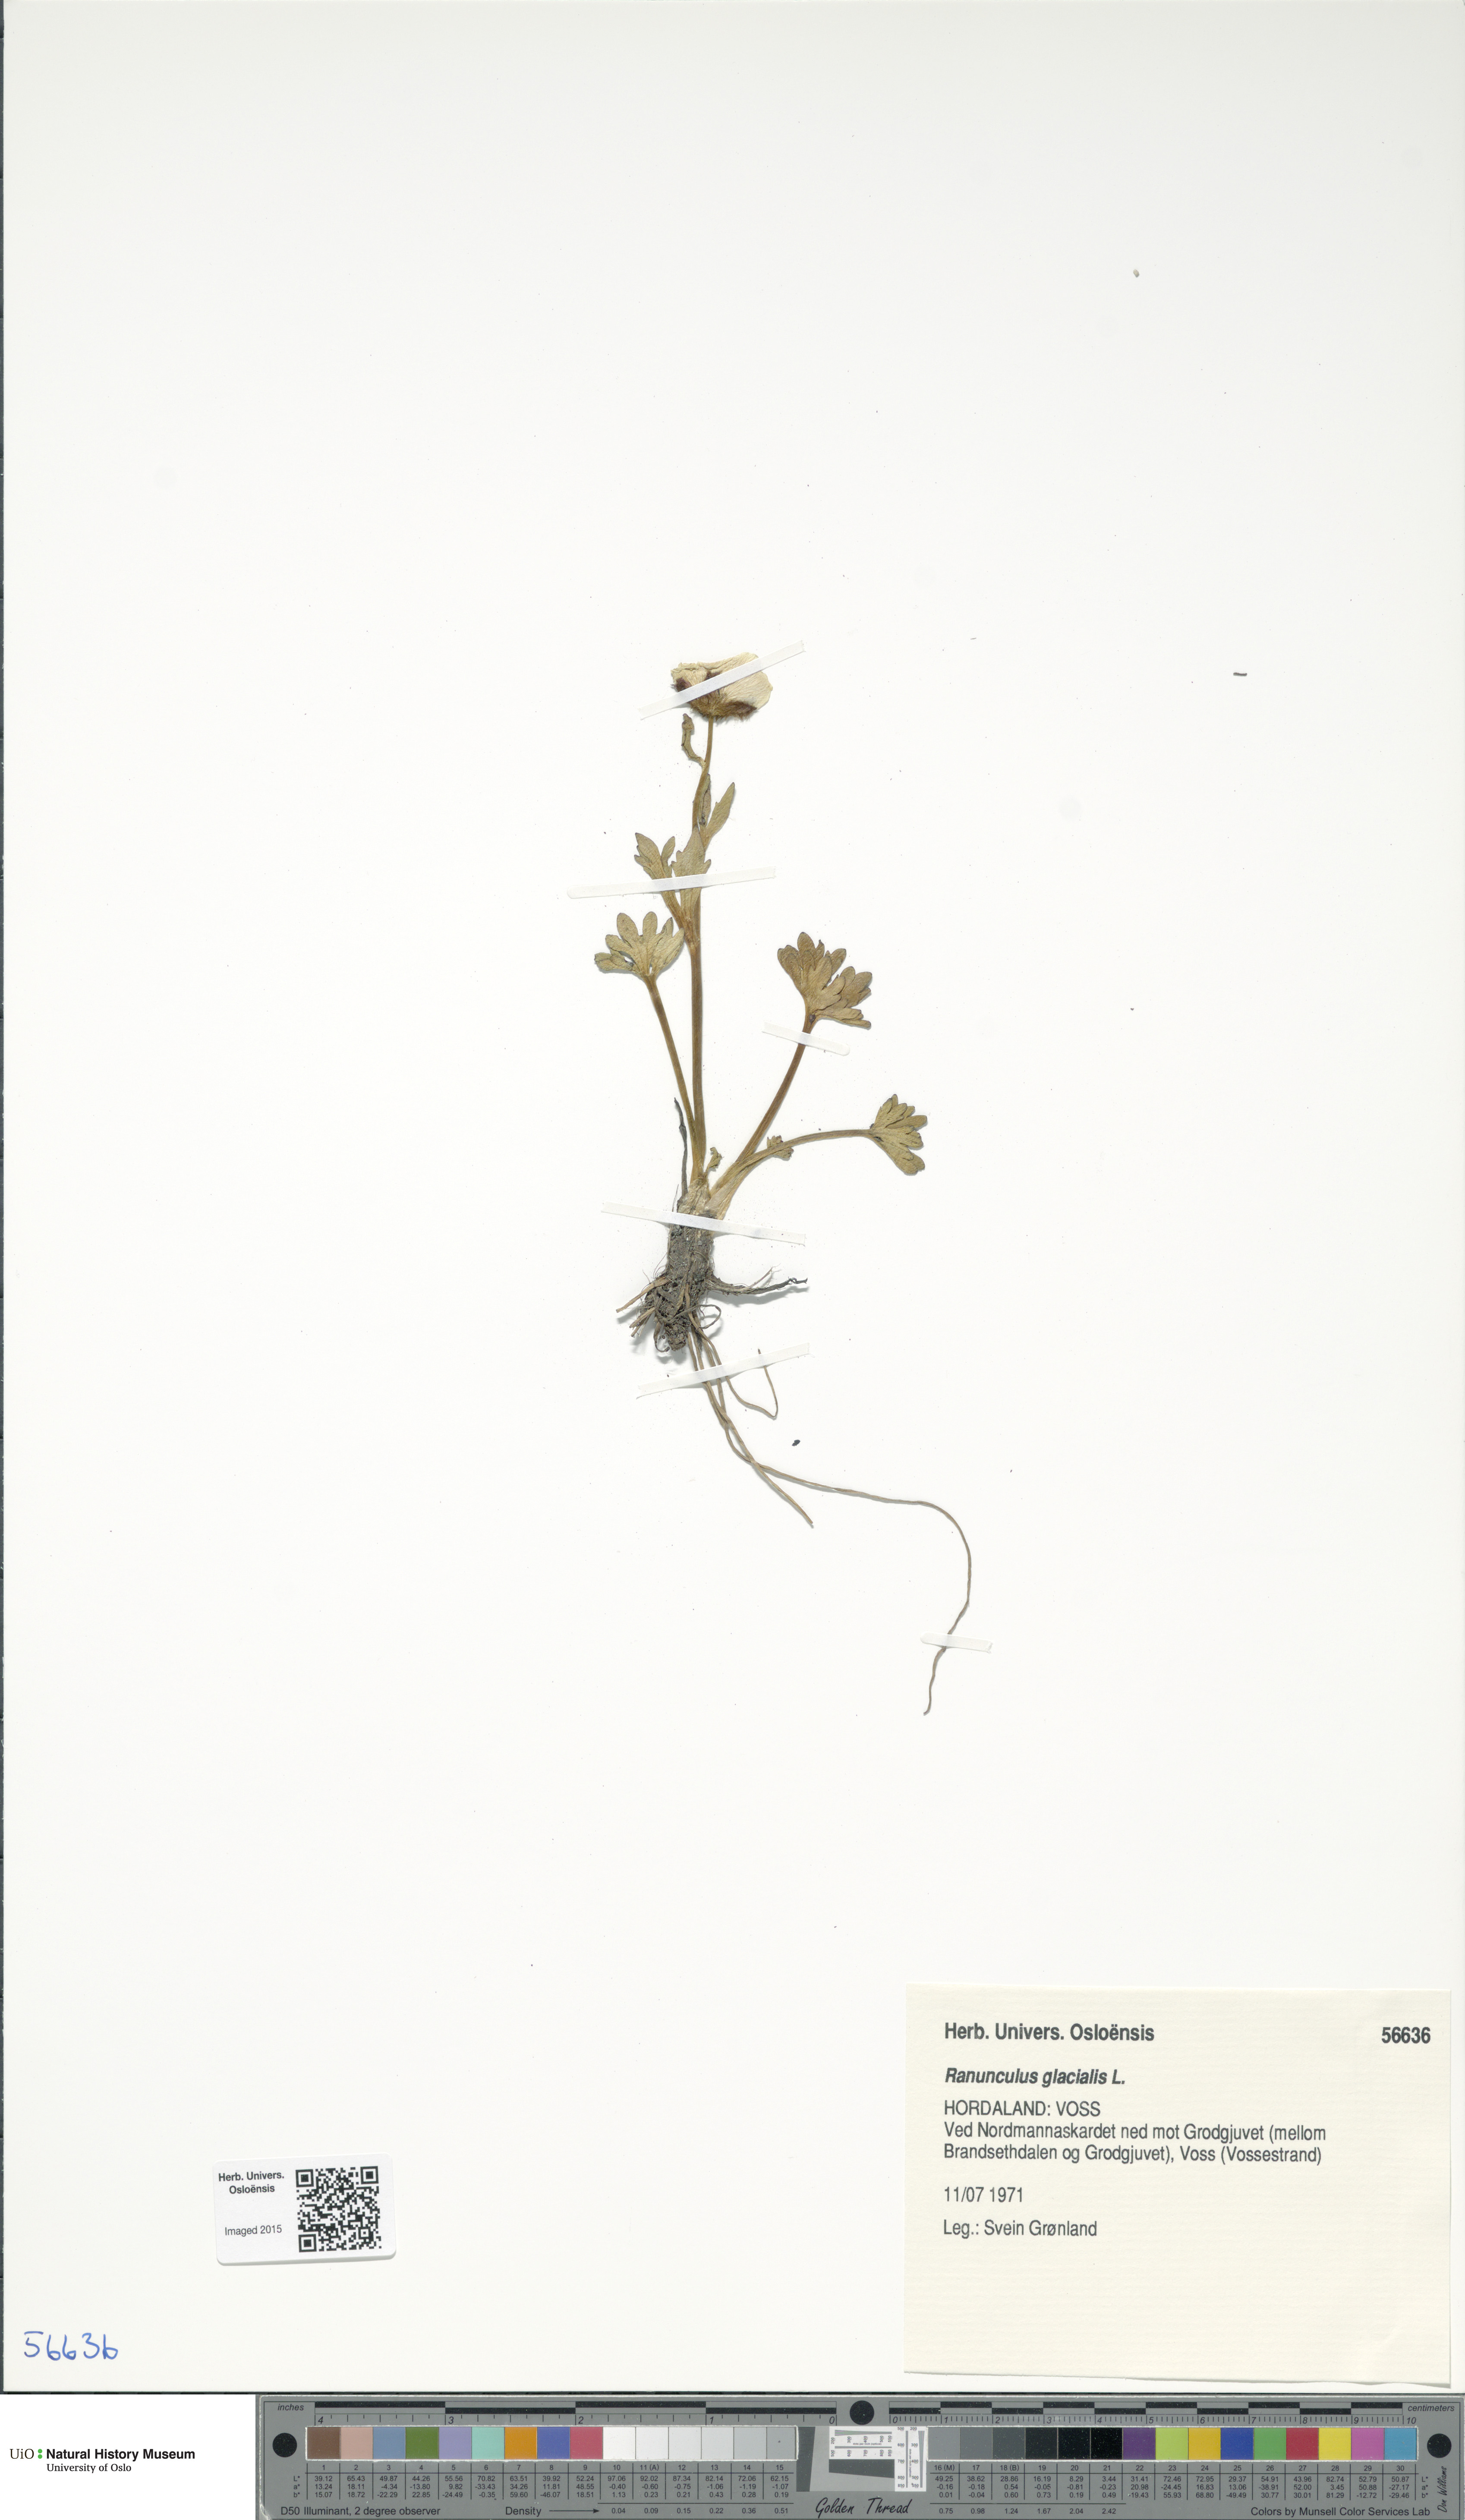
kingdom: Plantae
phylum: Tracheophyta
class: Magnoliopsida
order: Ranunculales
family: Ranunculaceae
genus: Ranunculus
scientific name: Ranunculus glacialis
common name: Glacier buttercup
